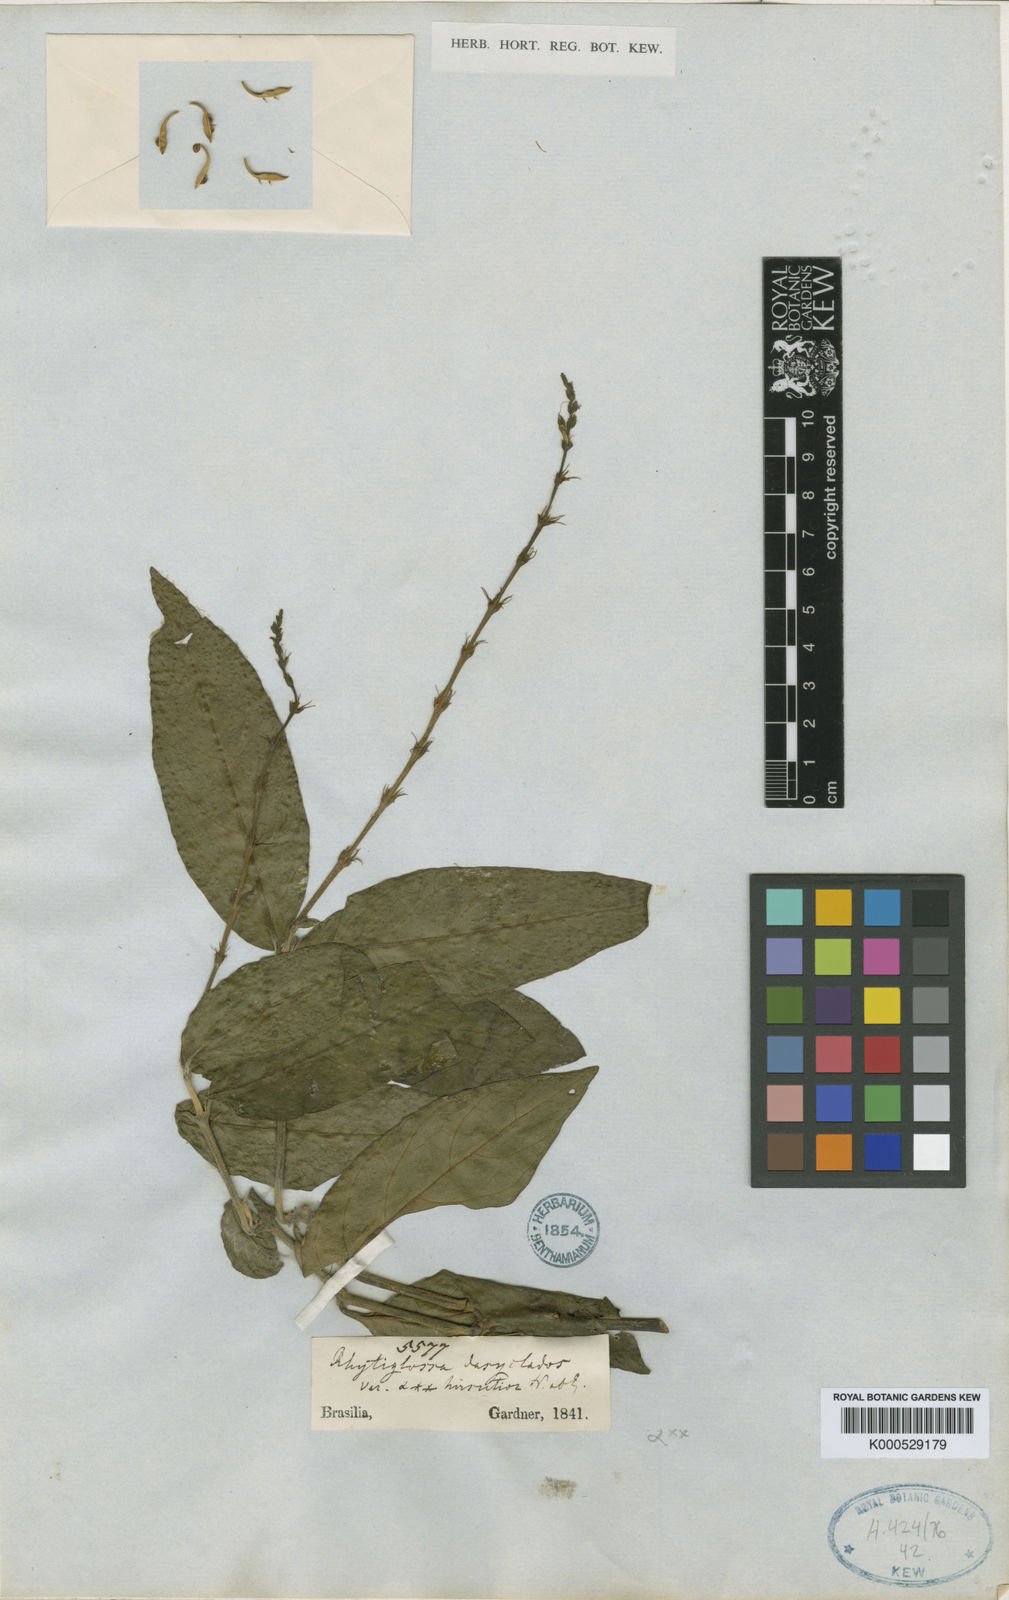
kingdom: Plantae
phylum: Tracheophyta
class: Magnoliopsida
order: Lamiales
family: Acanthaceae
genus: Dianthera
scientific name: Dianthera dasyclados
